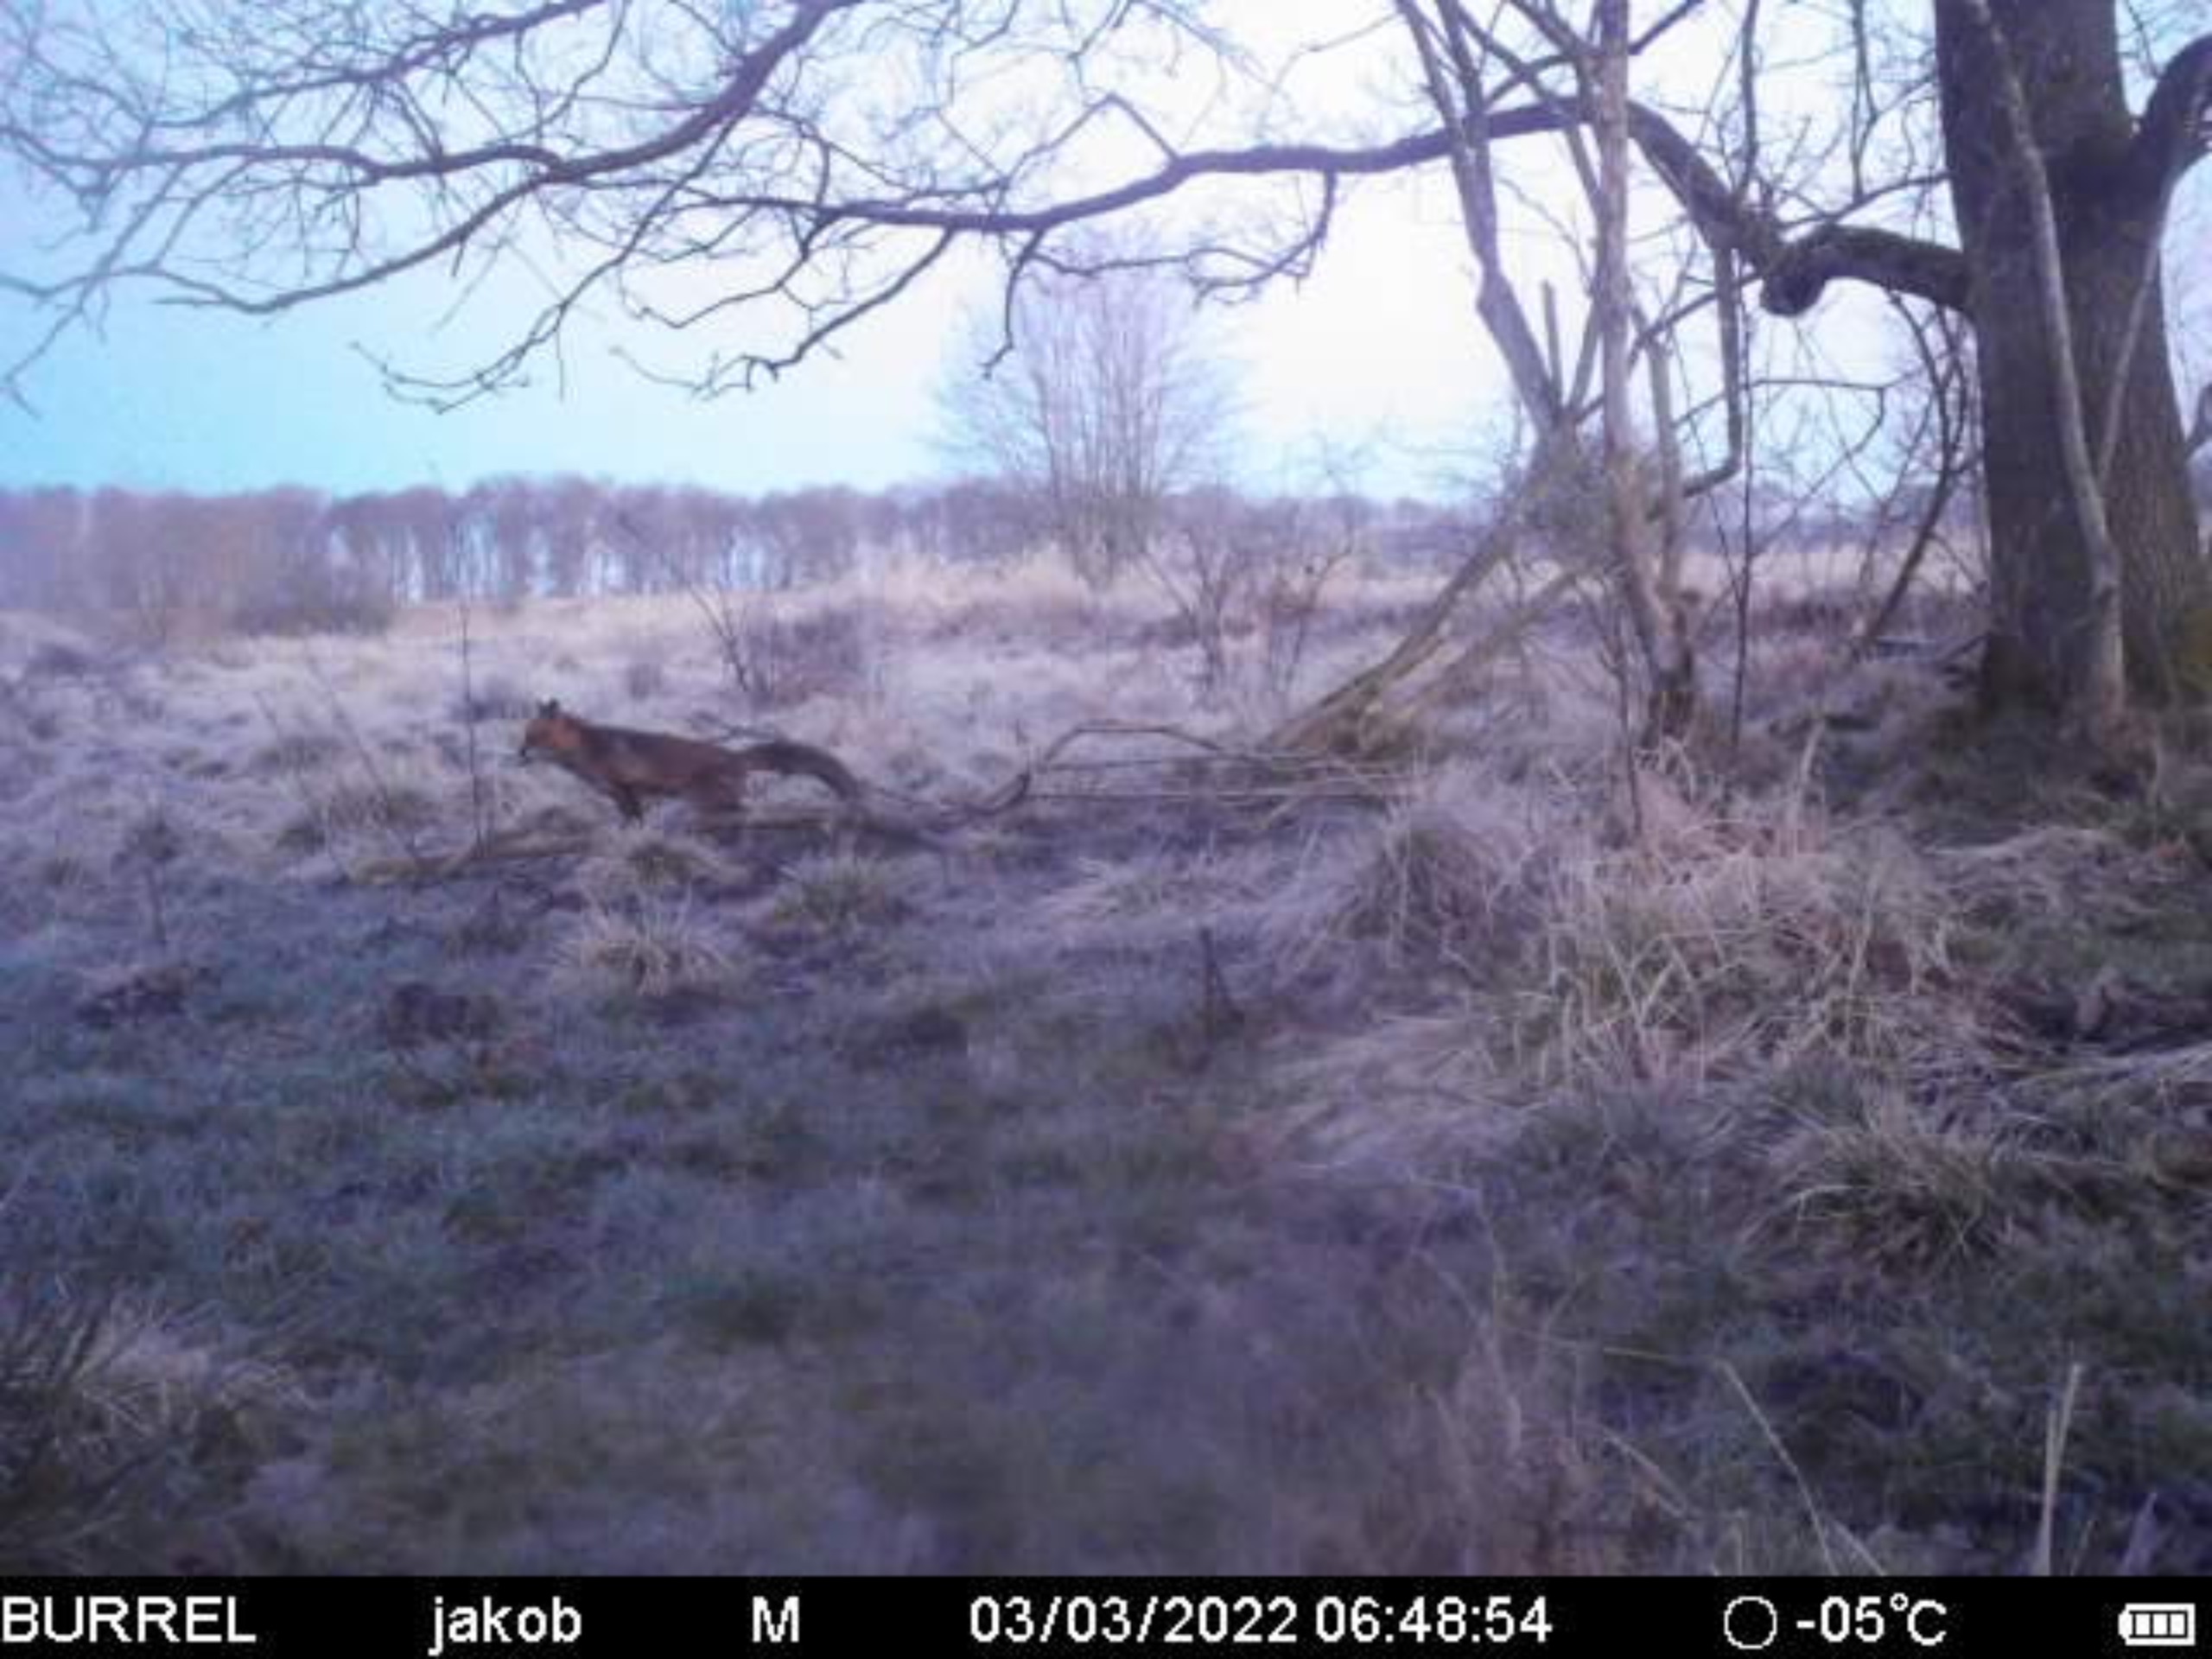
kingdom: Animalia
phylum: Chordata
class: Mammalia
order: Carnivora
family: Canidae
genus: Vulpes
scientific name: Vulpes vulpes
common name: Ræv
